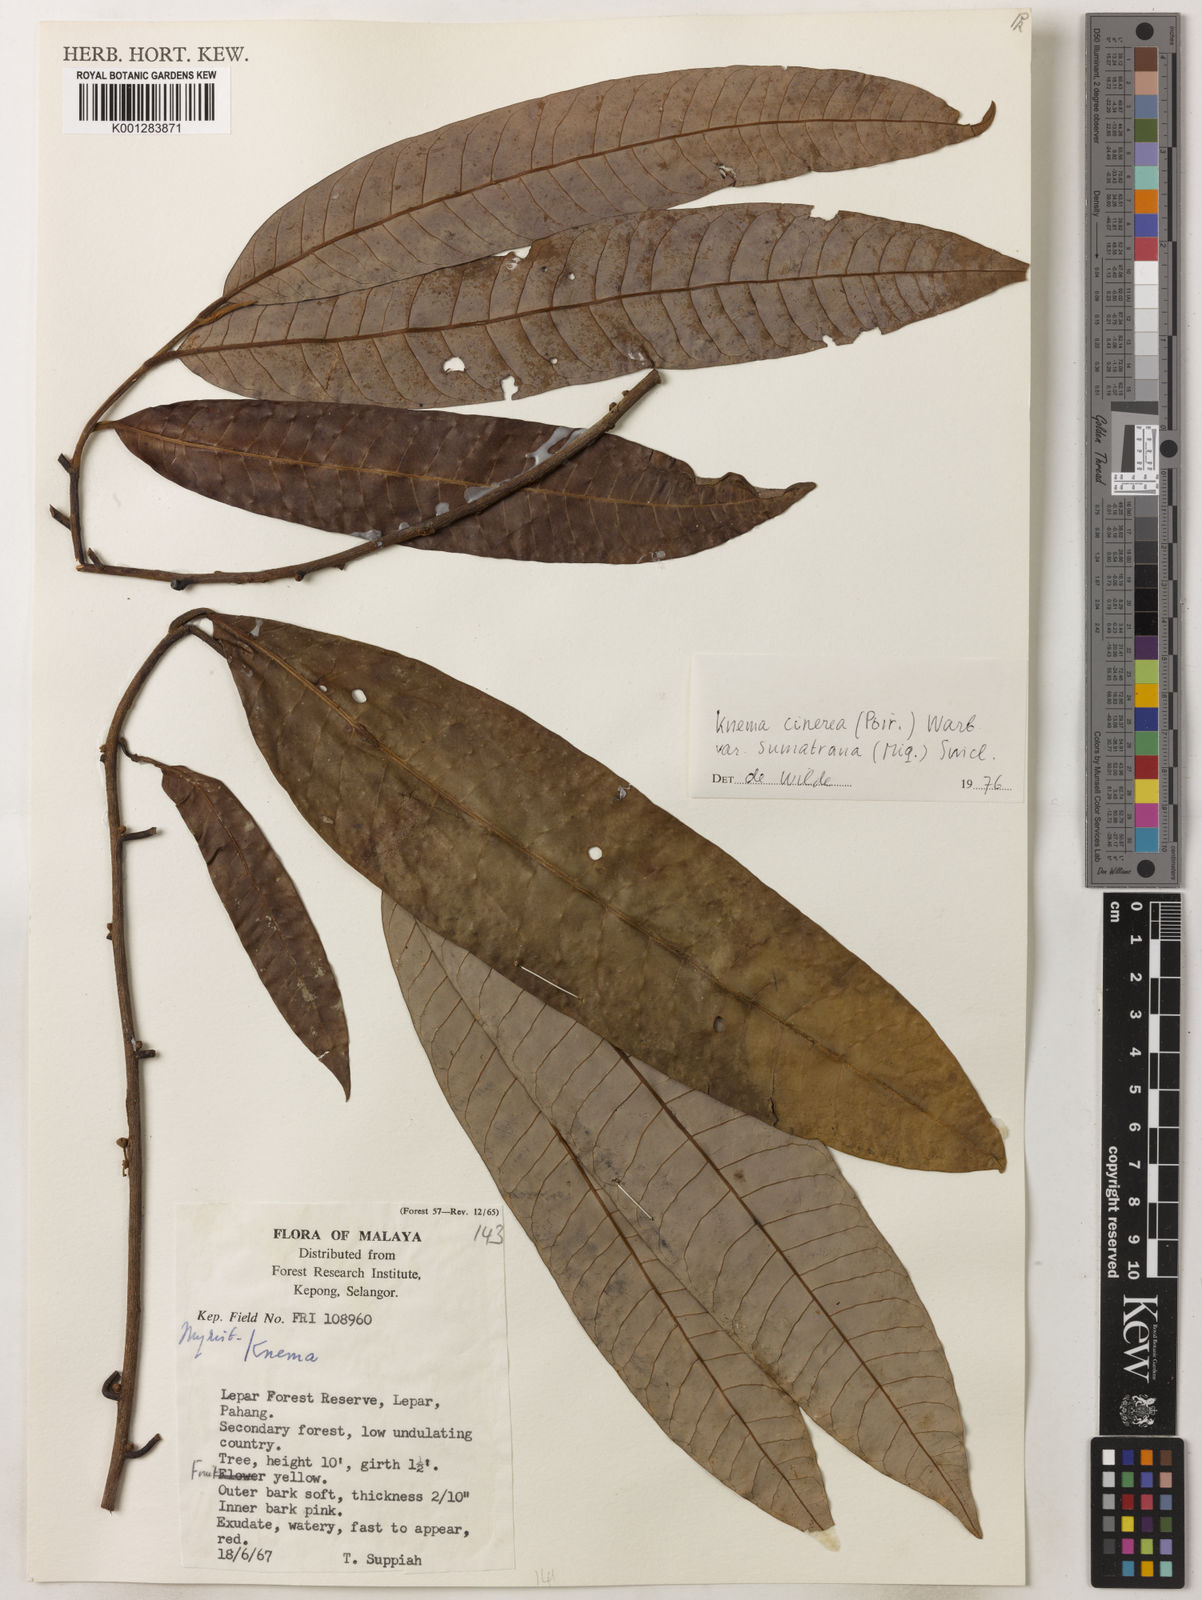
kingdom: Plantae
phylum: Tracheophyta
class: Magnoliopsida
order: Magnoliales
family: Myristicaceae
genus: Knema
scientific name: Knema
